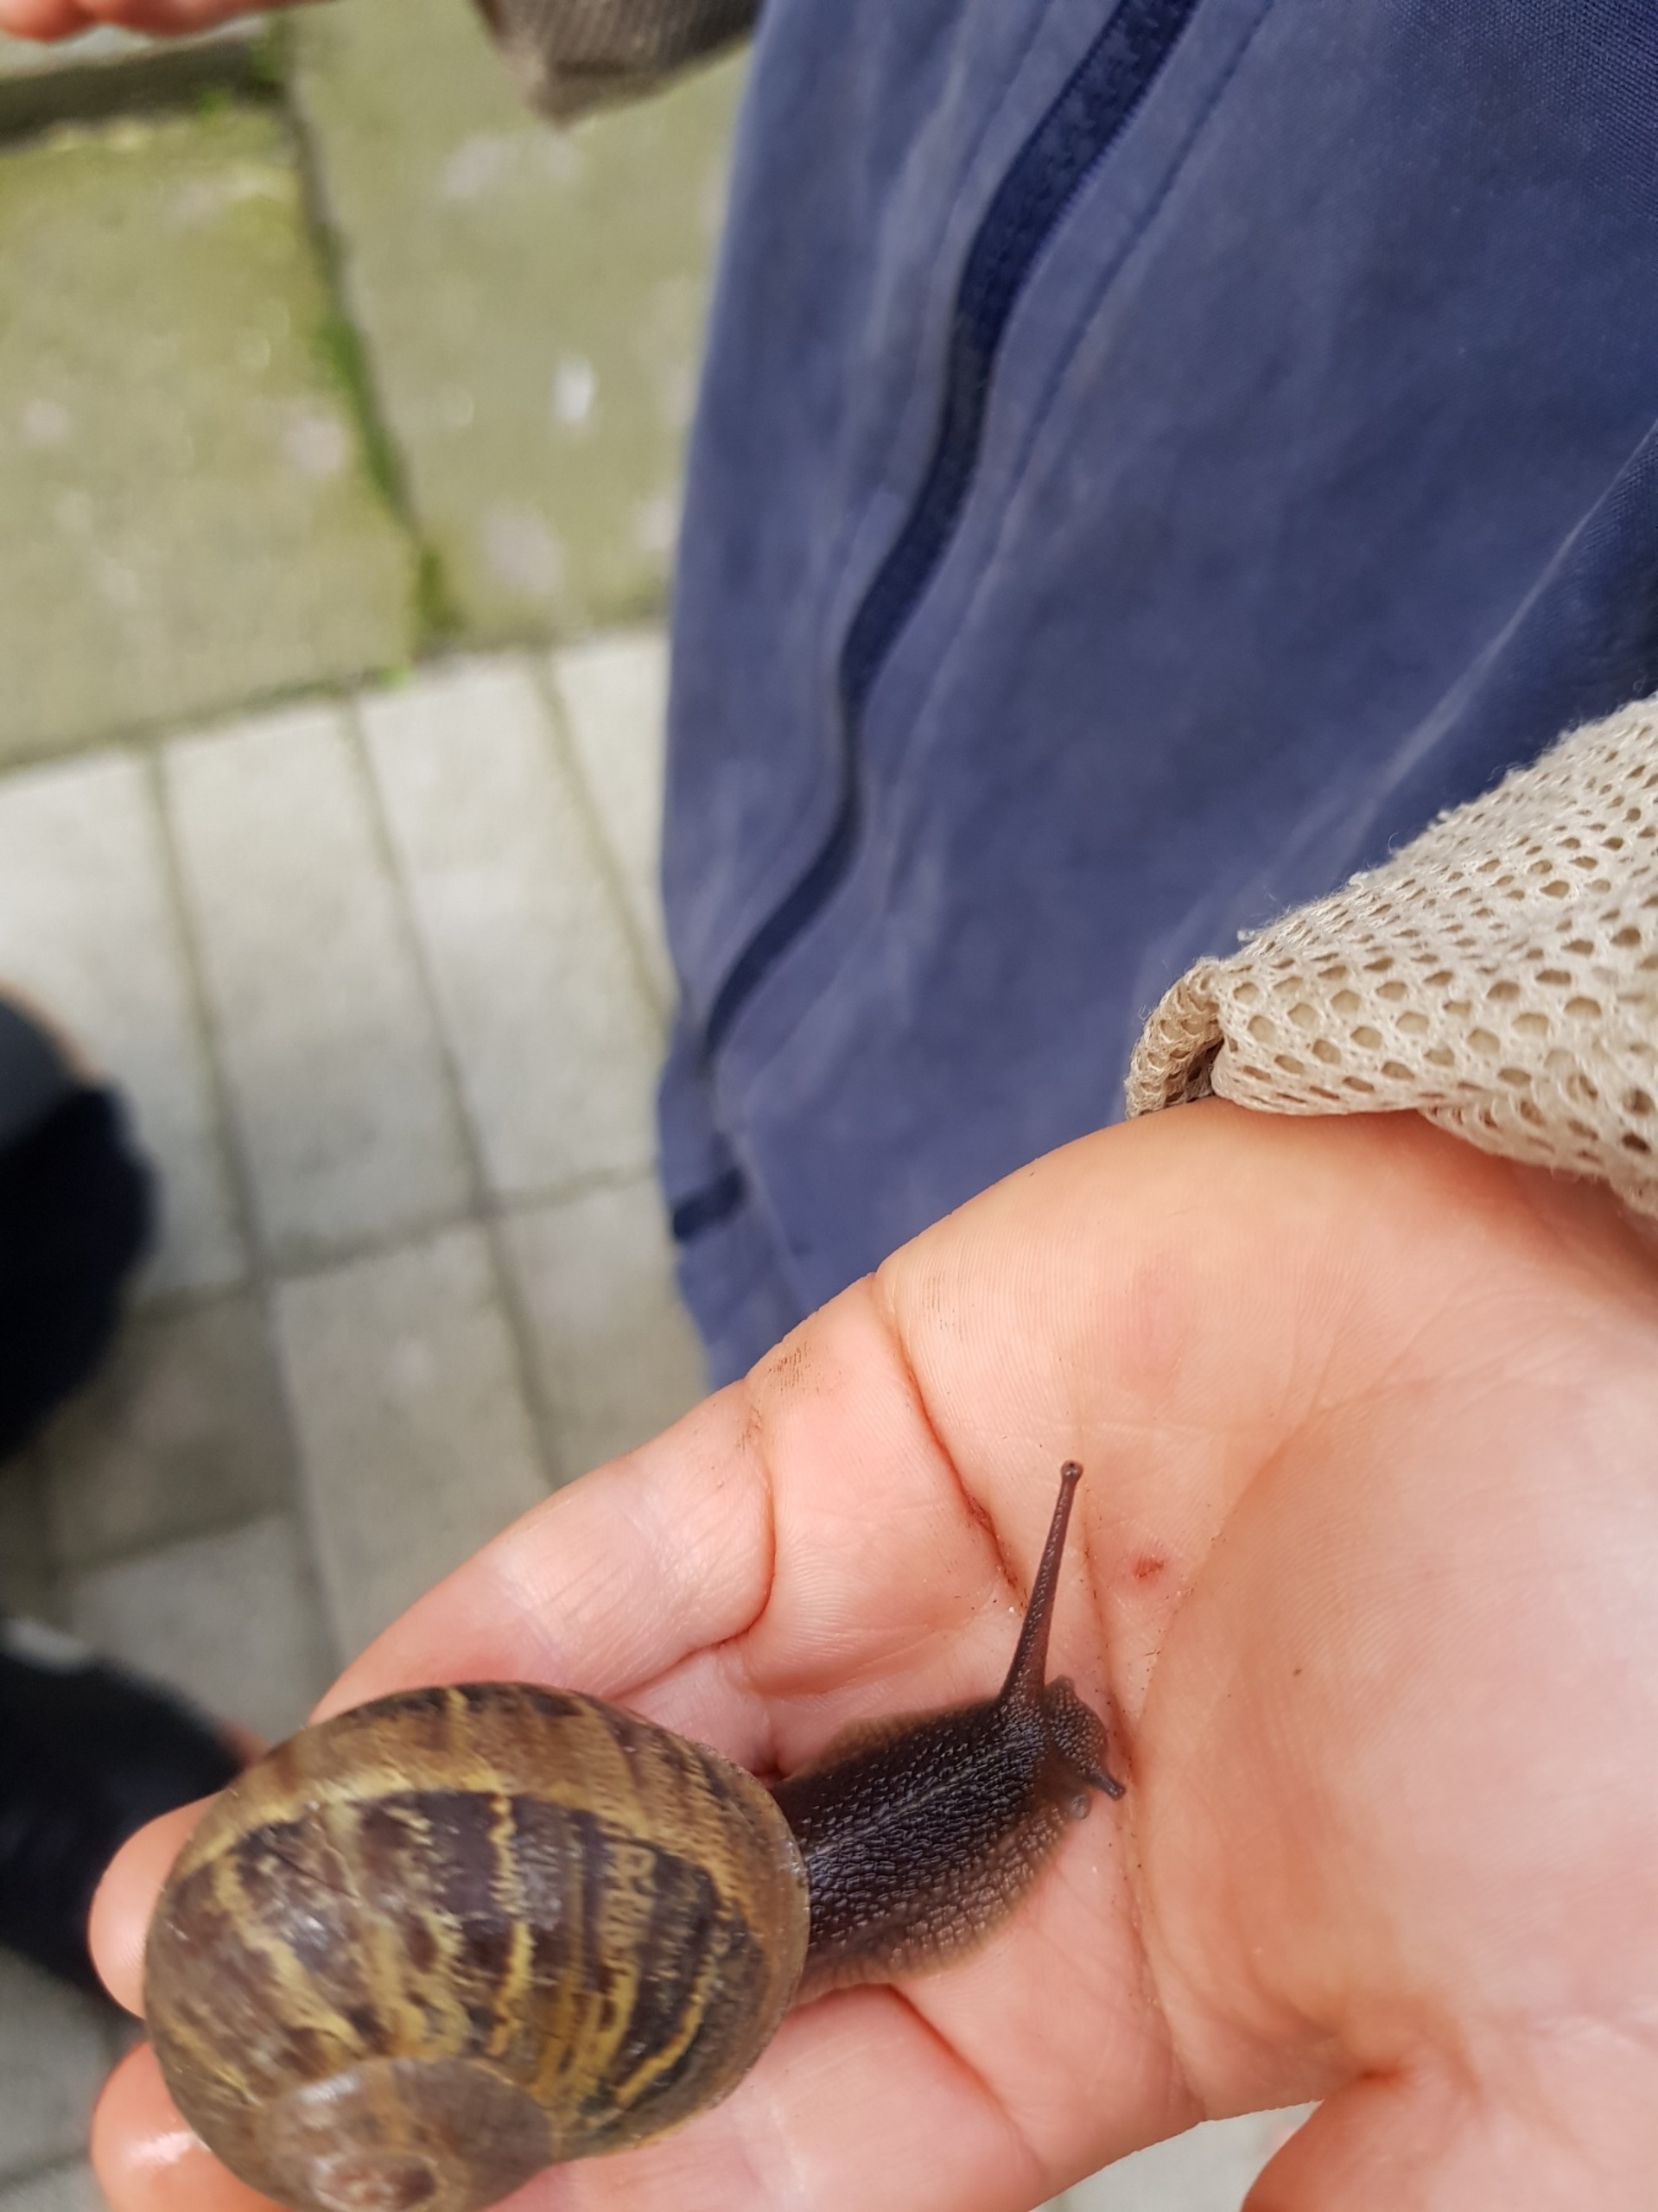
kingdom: Animalia
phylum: Mollusca
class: Gastropoda
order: Stylommatophora
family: Helicidae
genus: Cornu
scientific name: Cornu aspersum
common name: Plettet voldsnegl
